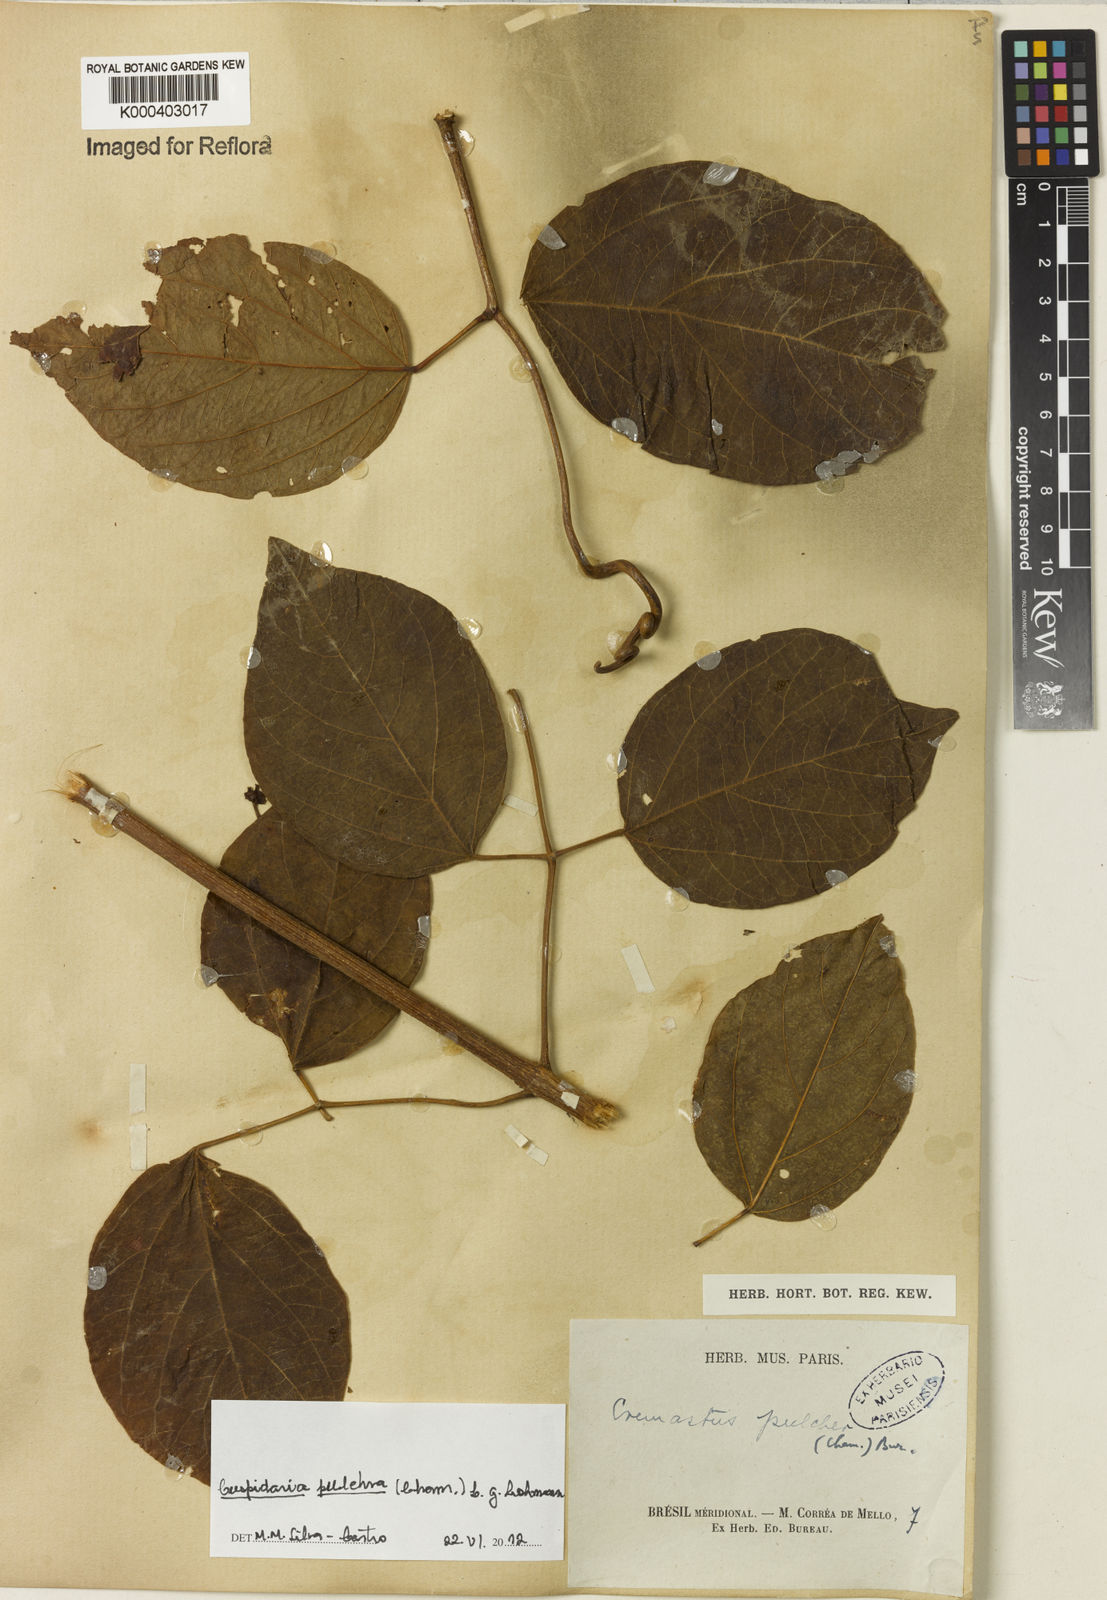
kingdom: Plantae
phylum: Tracheophyta
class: Magnoliopsida
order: Lamiales
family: Bignoniaceae
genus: Cuspidaria
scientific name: Cuspidaria pulchra
